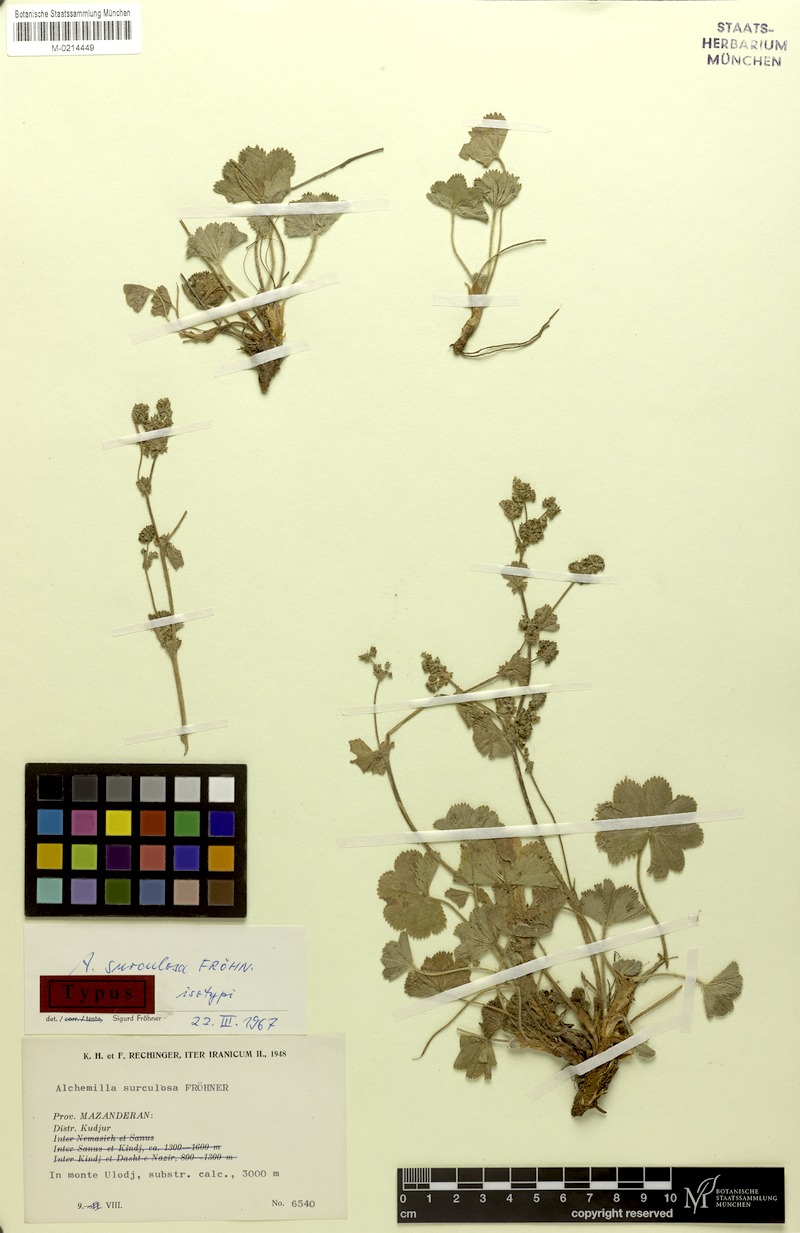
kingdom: Plantae
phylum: Tracheophyta
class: Magnoliopsida
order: Rosales
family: Rosaceae
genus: Alchemilla
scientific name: Alchemilla surculosa
